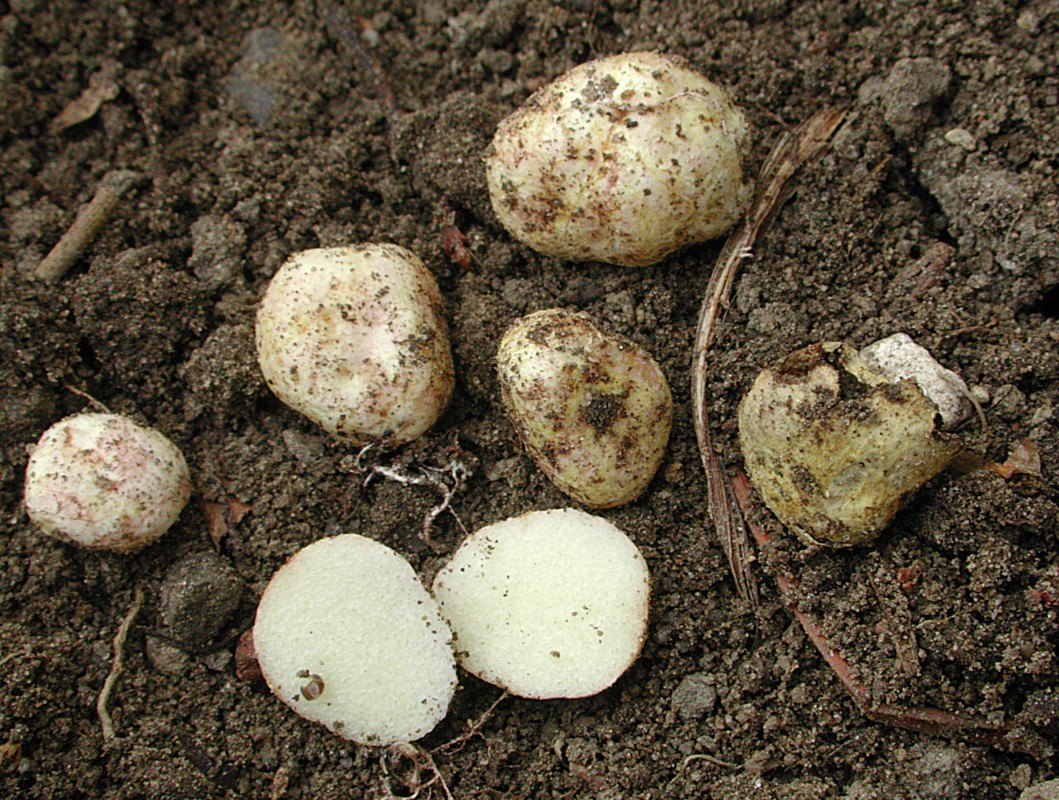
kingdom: Fungi
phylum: Basidiomycota
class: Agaricomycetes
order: Boletales
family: Rhizopogonaceae
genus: Rhizopogon
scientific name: Rhizopogon roseolus
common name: rødlig skægtrøffel
